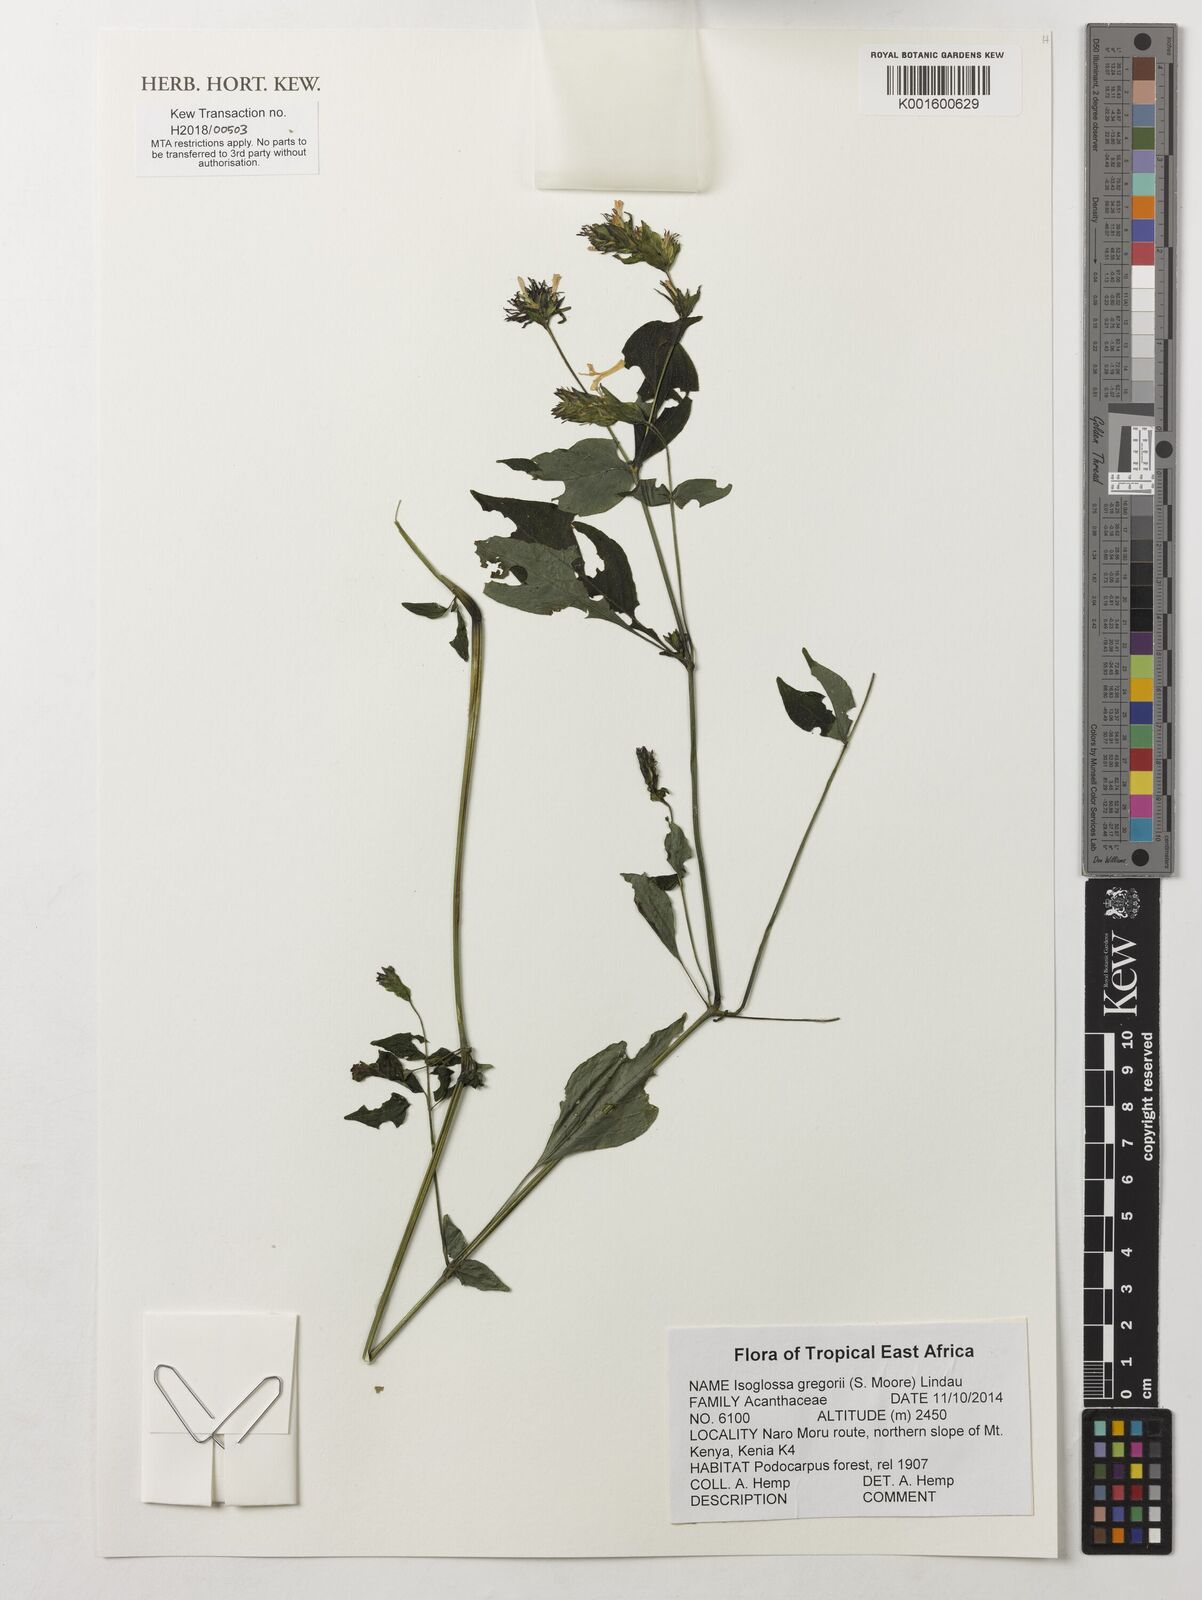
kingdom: Plantae
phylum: Tracheophyta
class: Magnoliopsida
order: Lamiales
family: Acanthaceae
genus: Isoglossa
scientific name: Isoglossa gregorii
